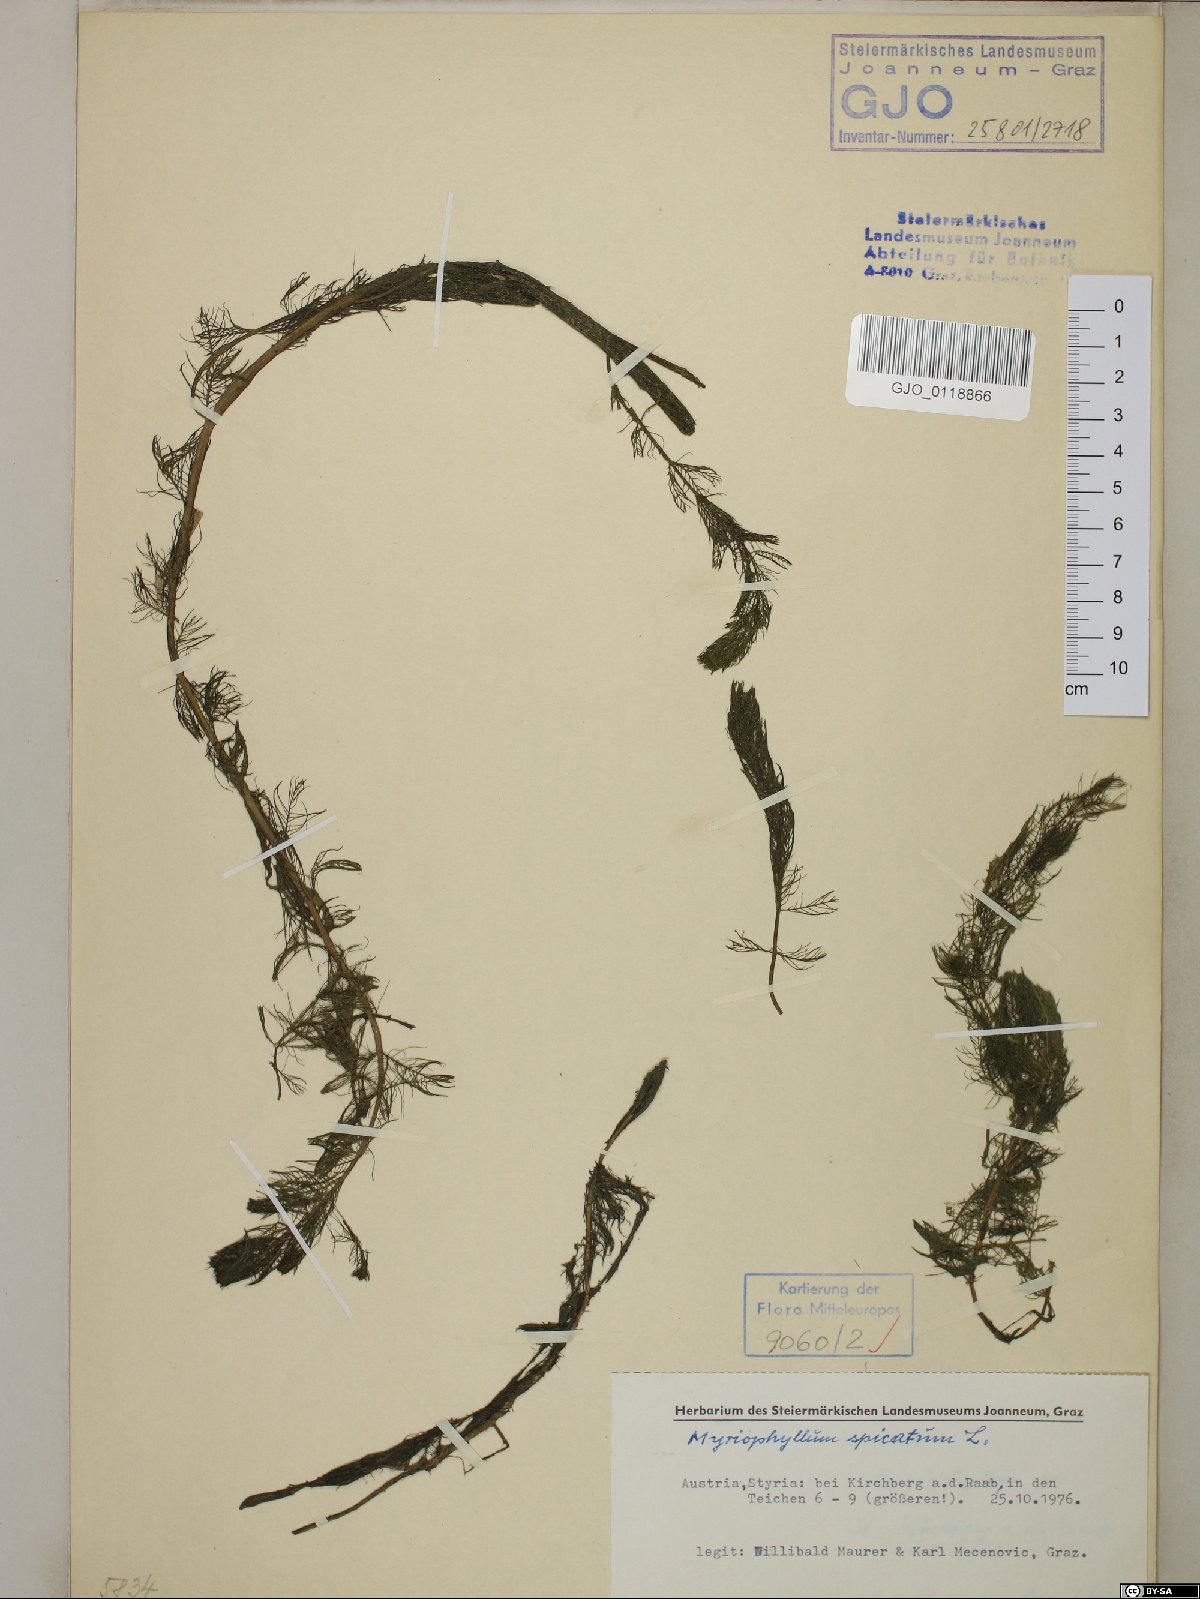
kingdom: Plantae
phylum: Tracheophyta
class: Magnoliopsida
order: Saxifragales
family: Haloragaceae
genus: Myriophyllum
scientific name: Myriophyllum spicatum
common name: Spiked water-milfoil
